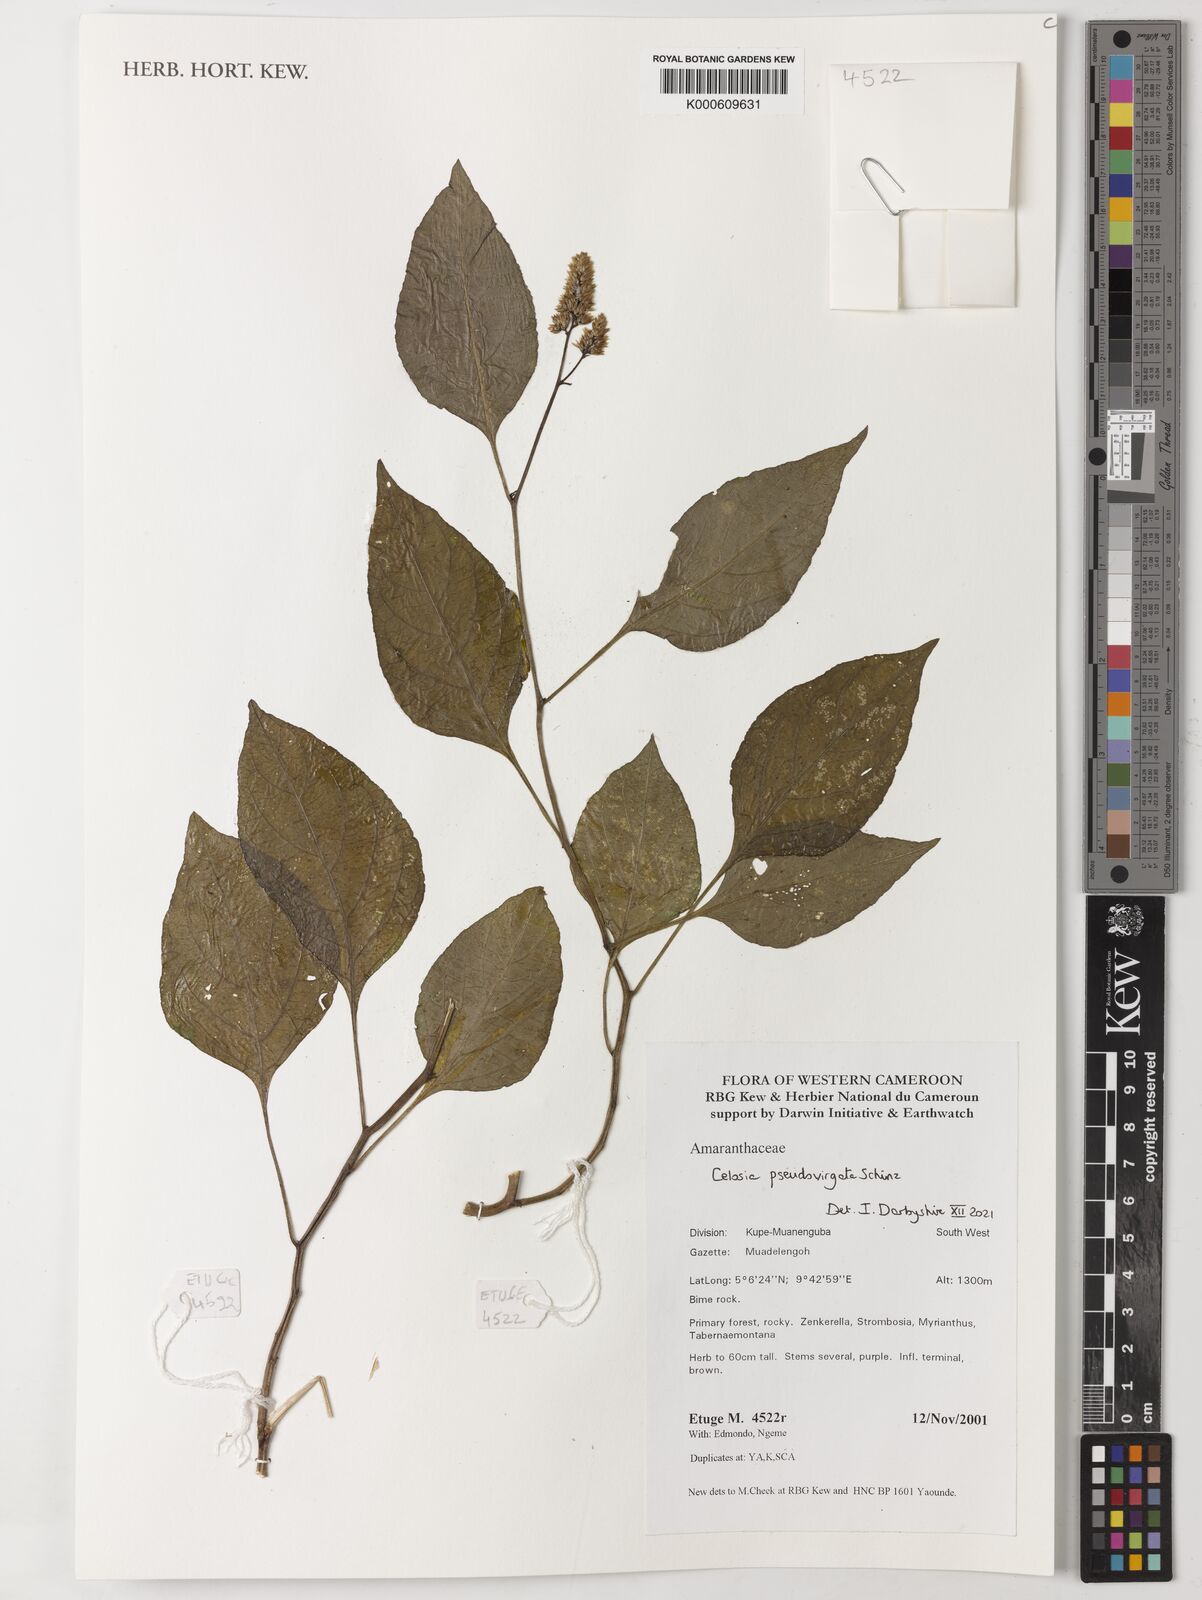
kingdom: Plantae
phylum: Tracheophyta
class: Magnoliopsida
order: Caryophyllales
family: Amaranthaceae
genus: Celosia
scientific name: Celosia pseudovirgata
